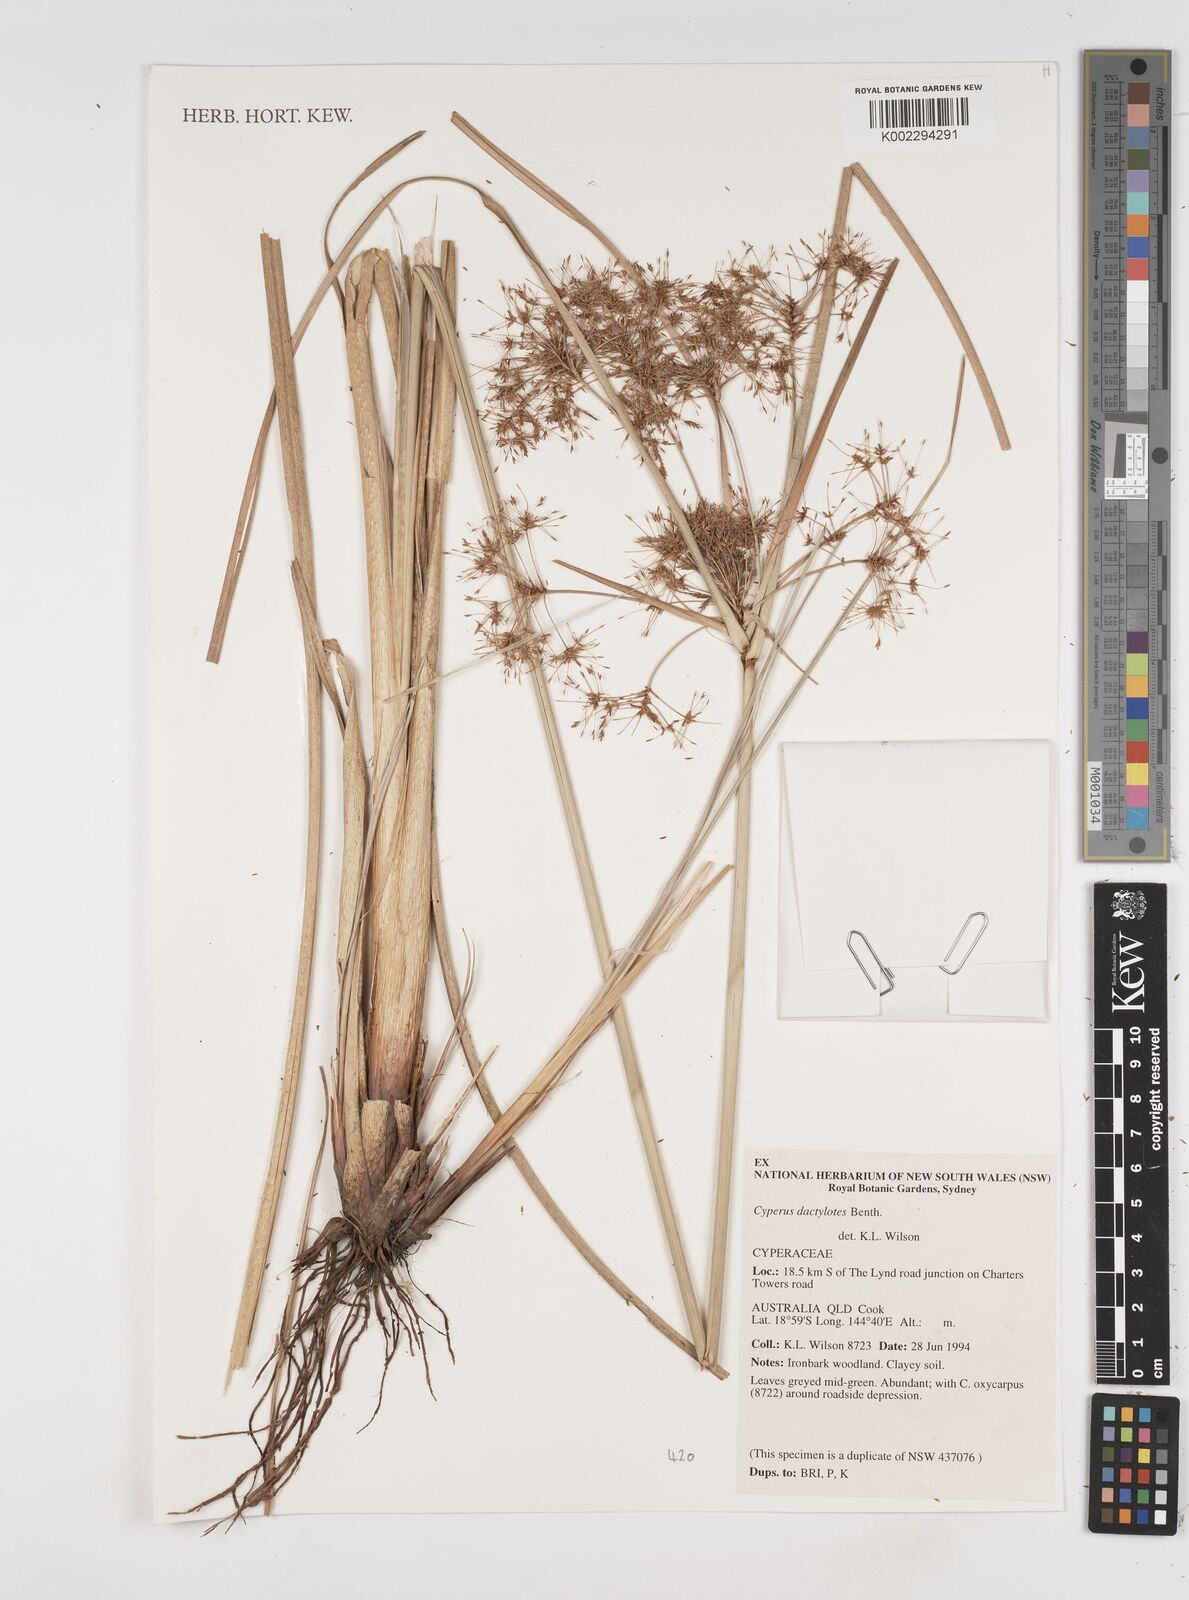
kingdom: Plantae
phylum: Tracheophyta
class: Liliopsida
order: Poales
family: Cyperaceae
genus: Cyperus
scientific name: Cyperus dactylotes
